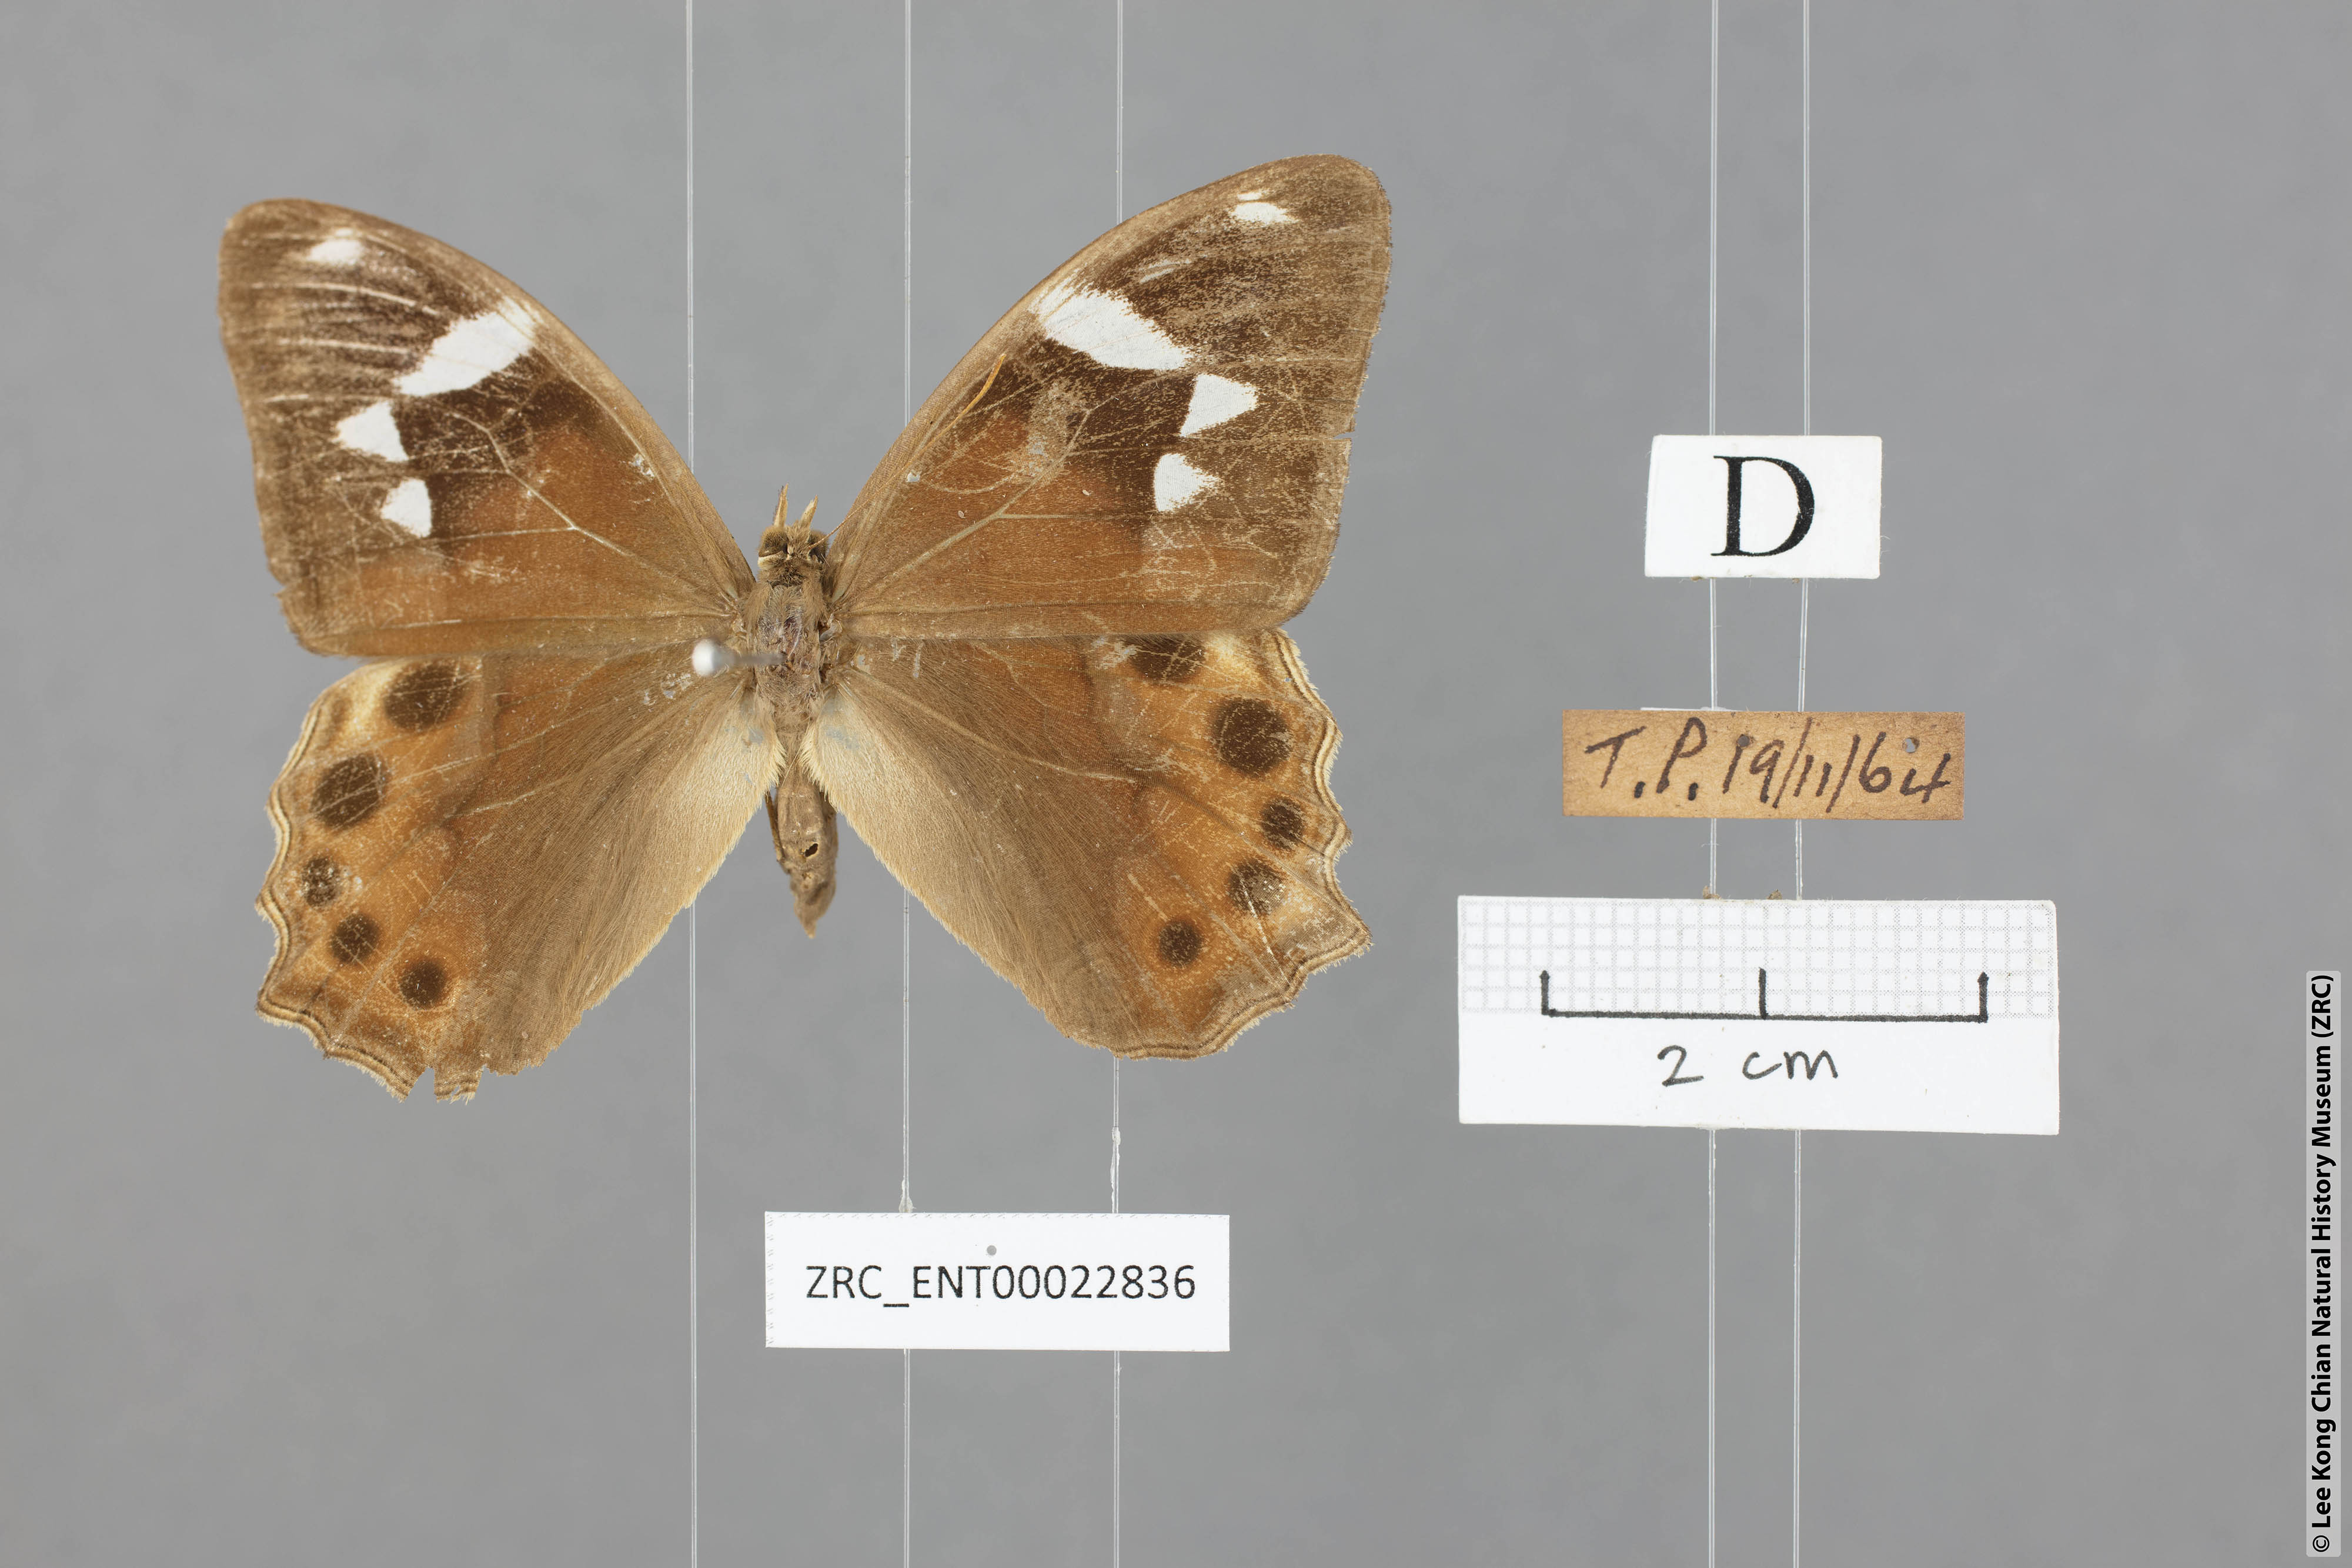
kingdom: Animalia
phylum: Arthropoda
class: Insecta
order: Lepidoptera
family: Nymphalidae
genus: Lethe
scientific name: Lethe mekara
